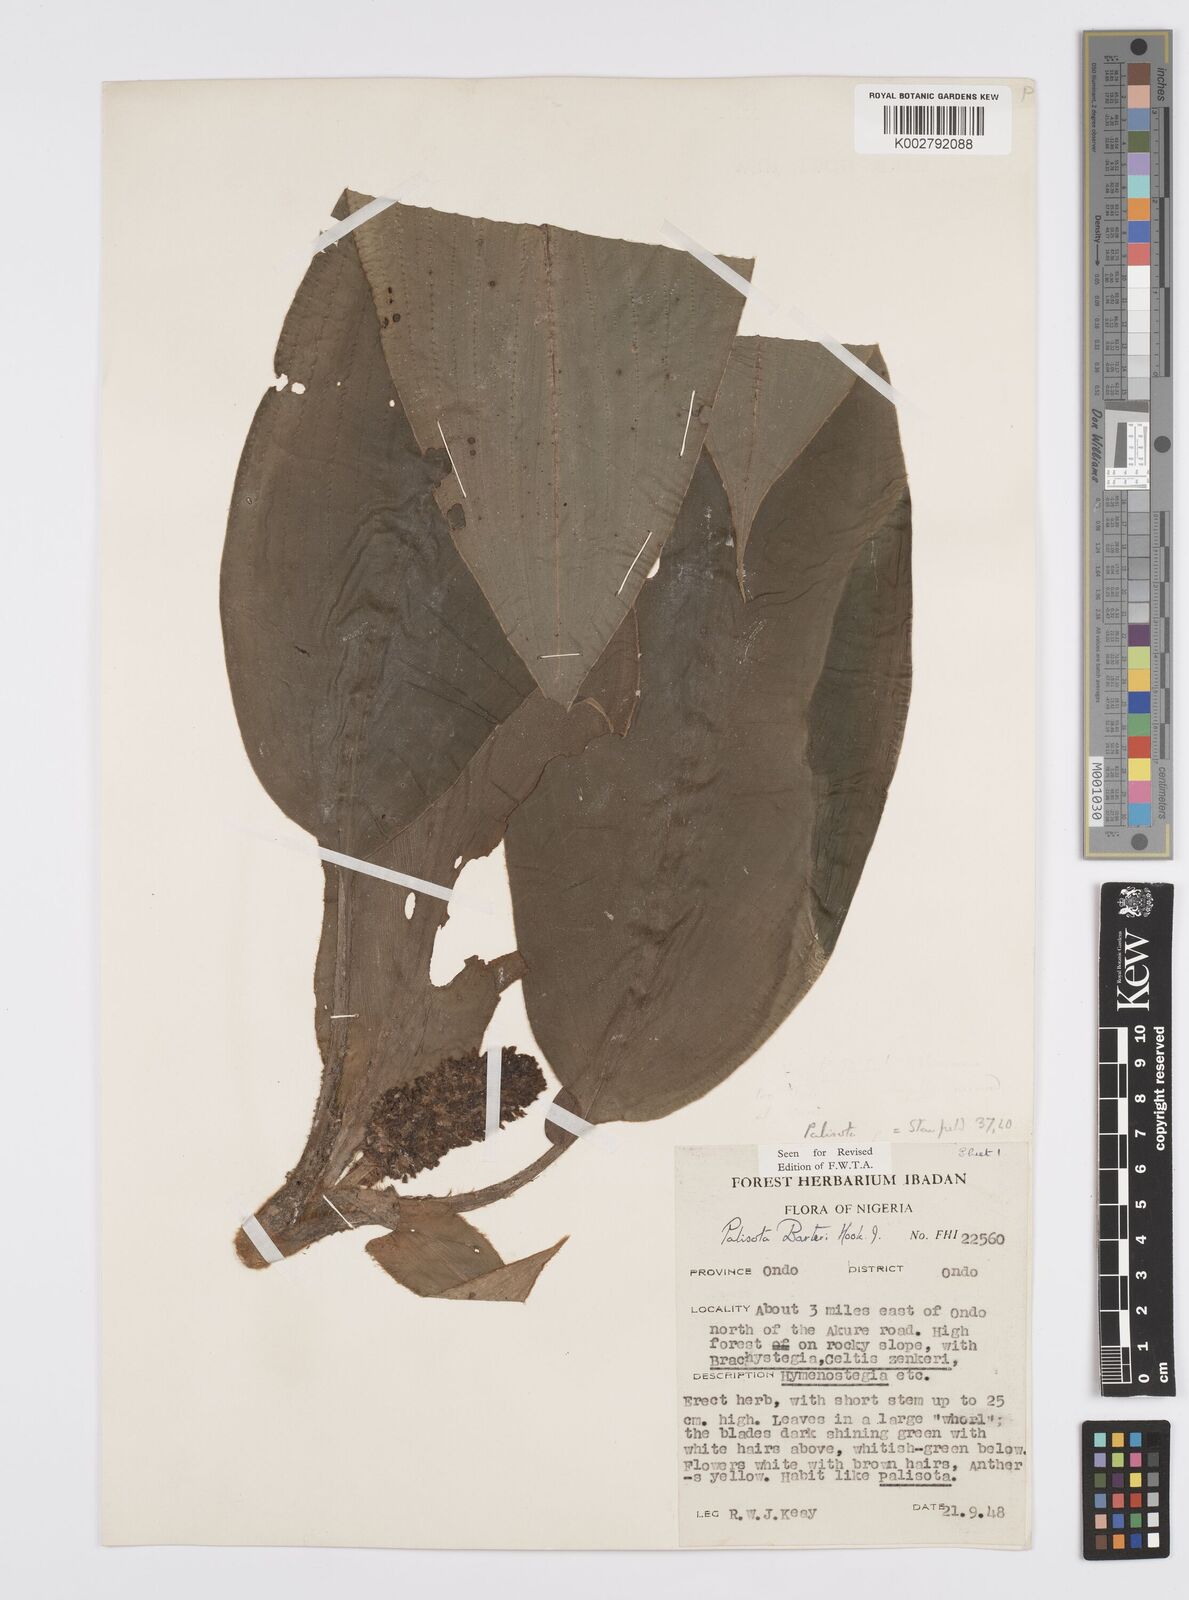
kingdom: Plantae
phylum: Tracheophyta
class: Liliopsida
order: Commelinales
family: Commelinaceae
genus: Palisota
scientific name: Palisota barteri
